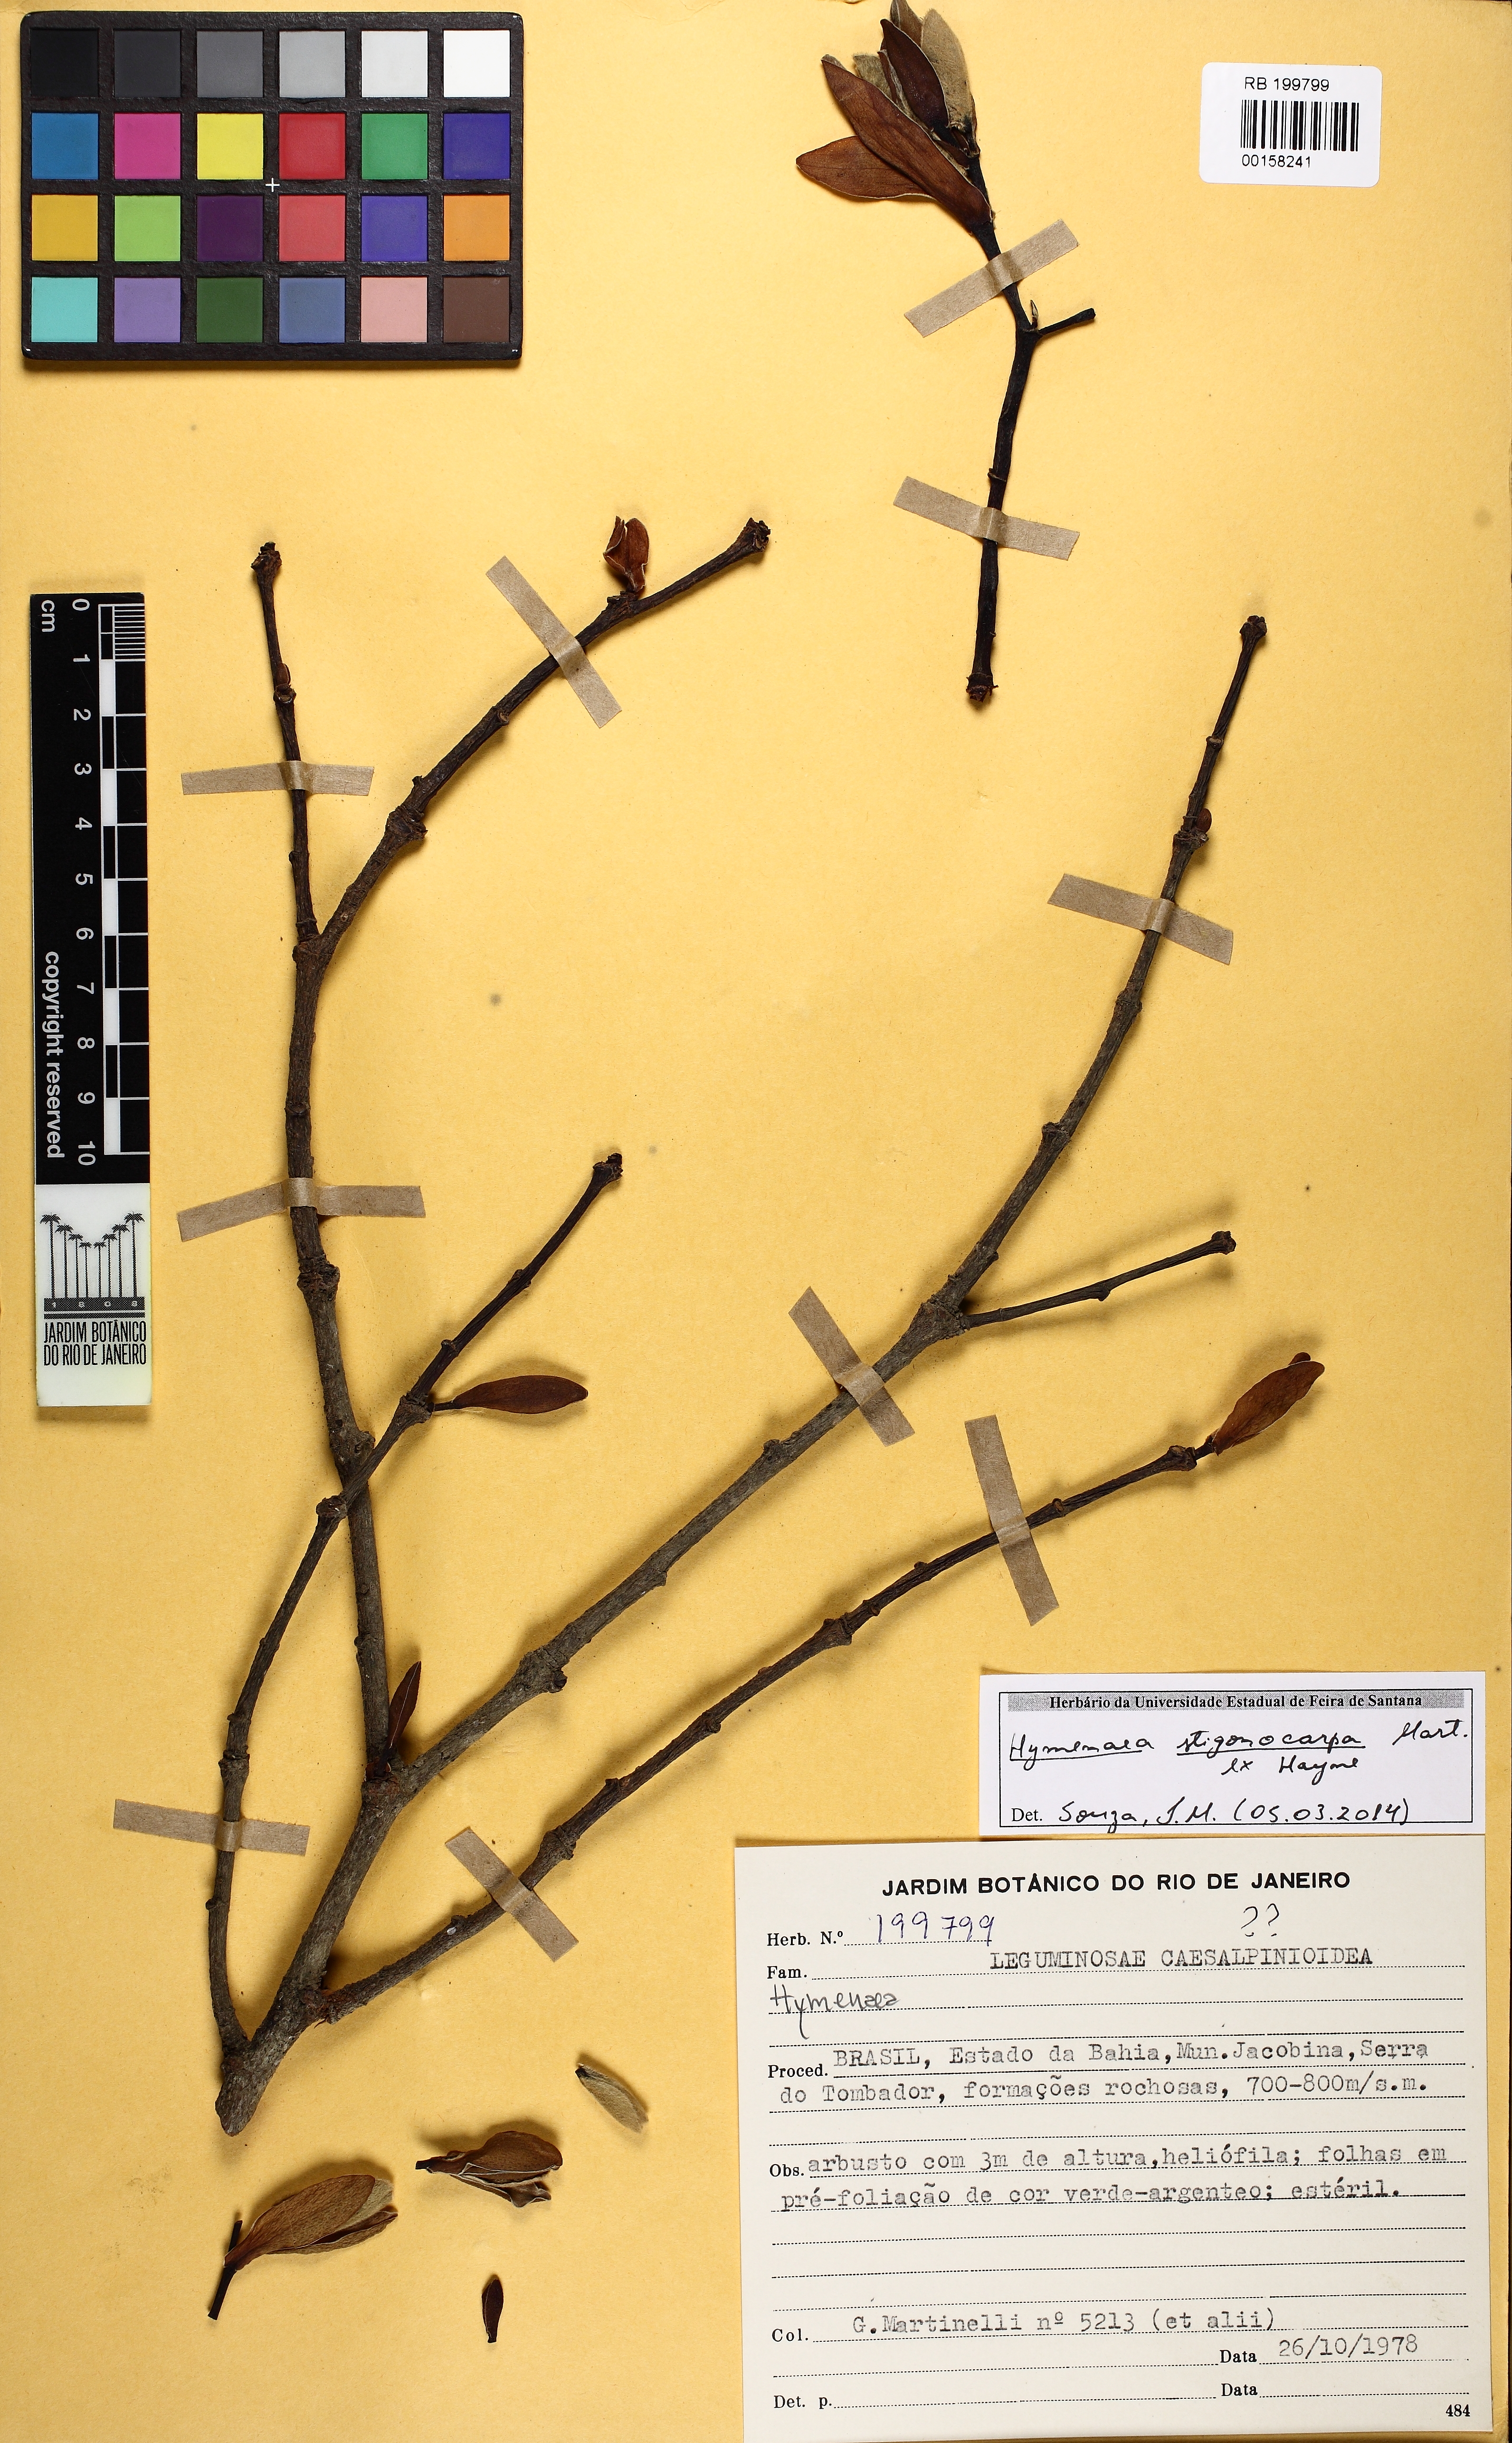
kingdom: Plantae
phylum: Tracheophyta
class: Magnoliopsida
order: Fabales
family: Fabaceae
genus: Hymenaea
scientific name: Hymenaea stigonocarpa
